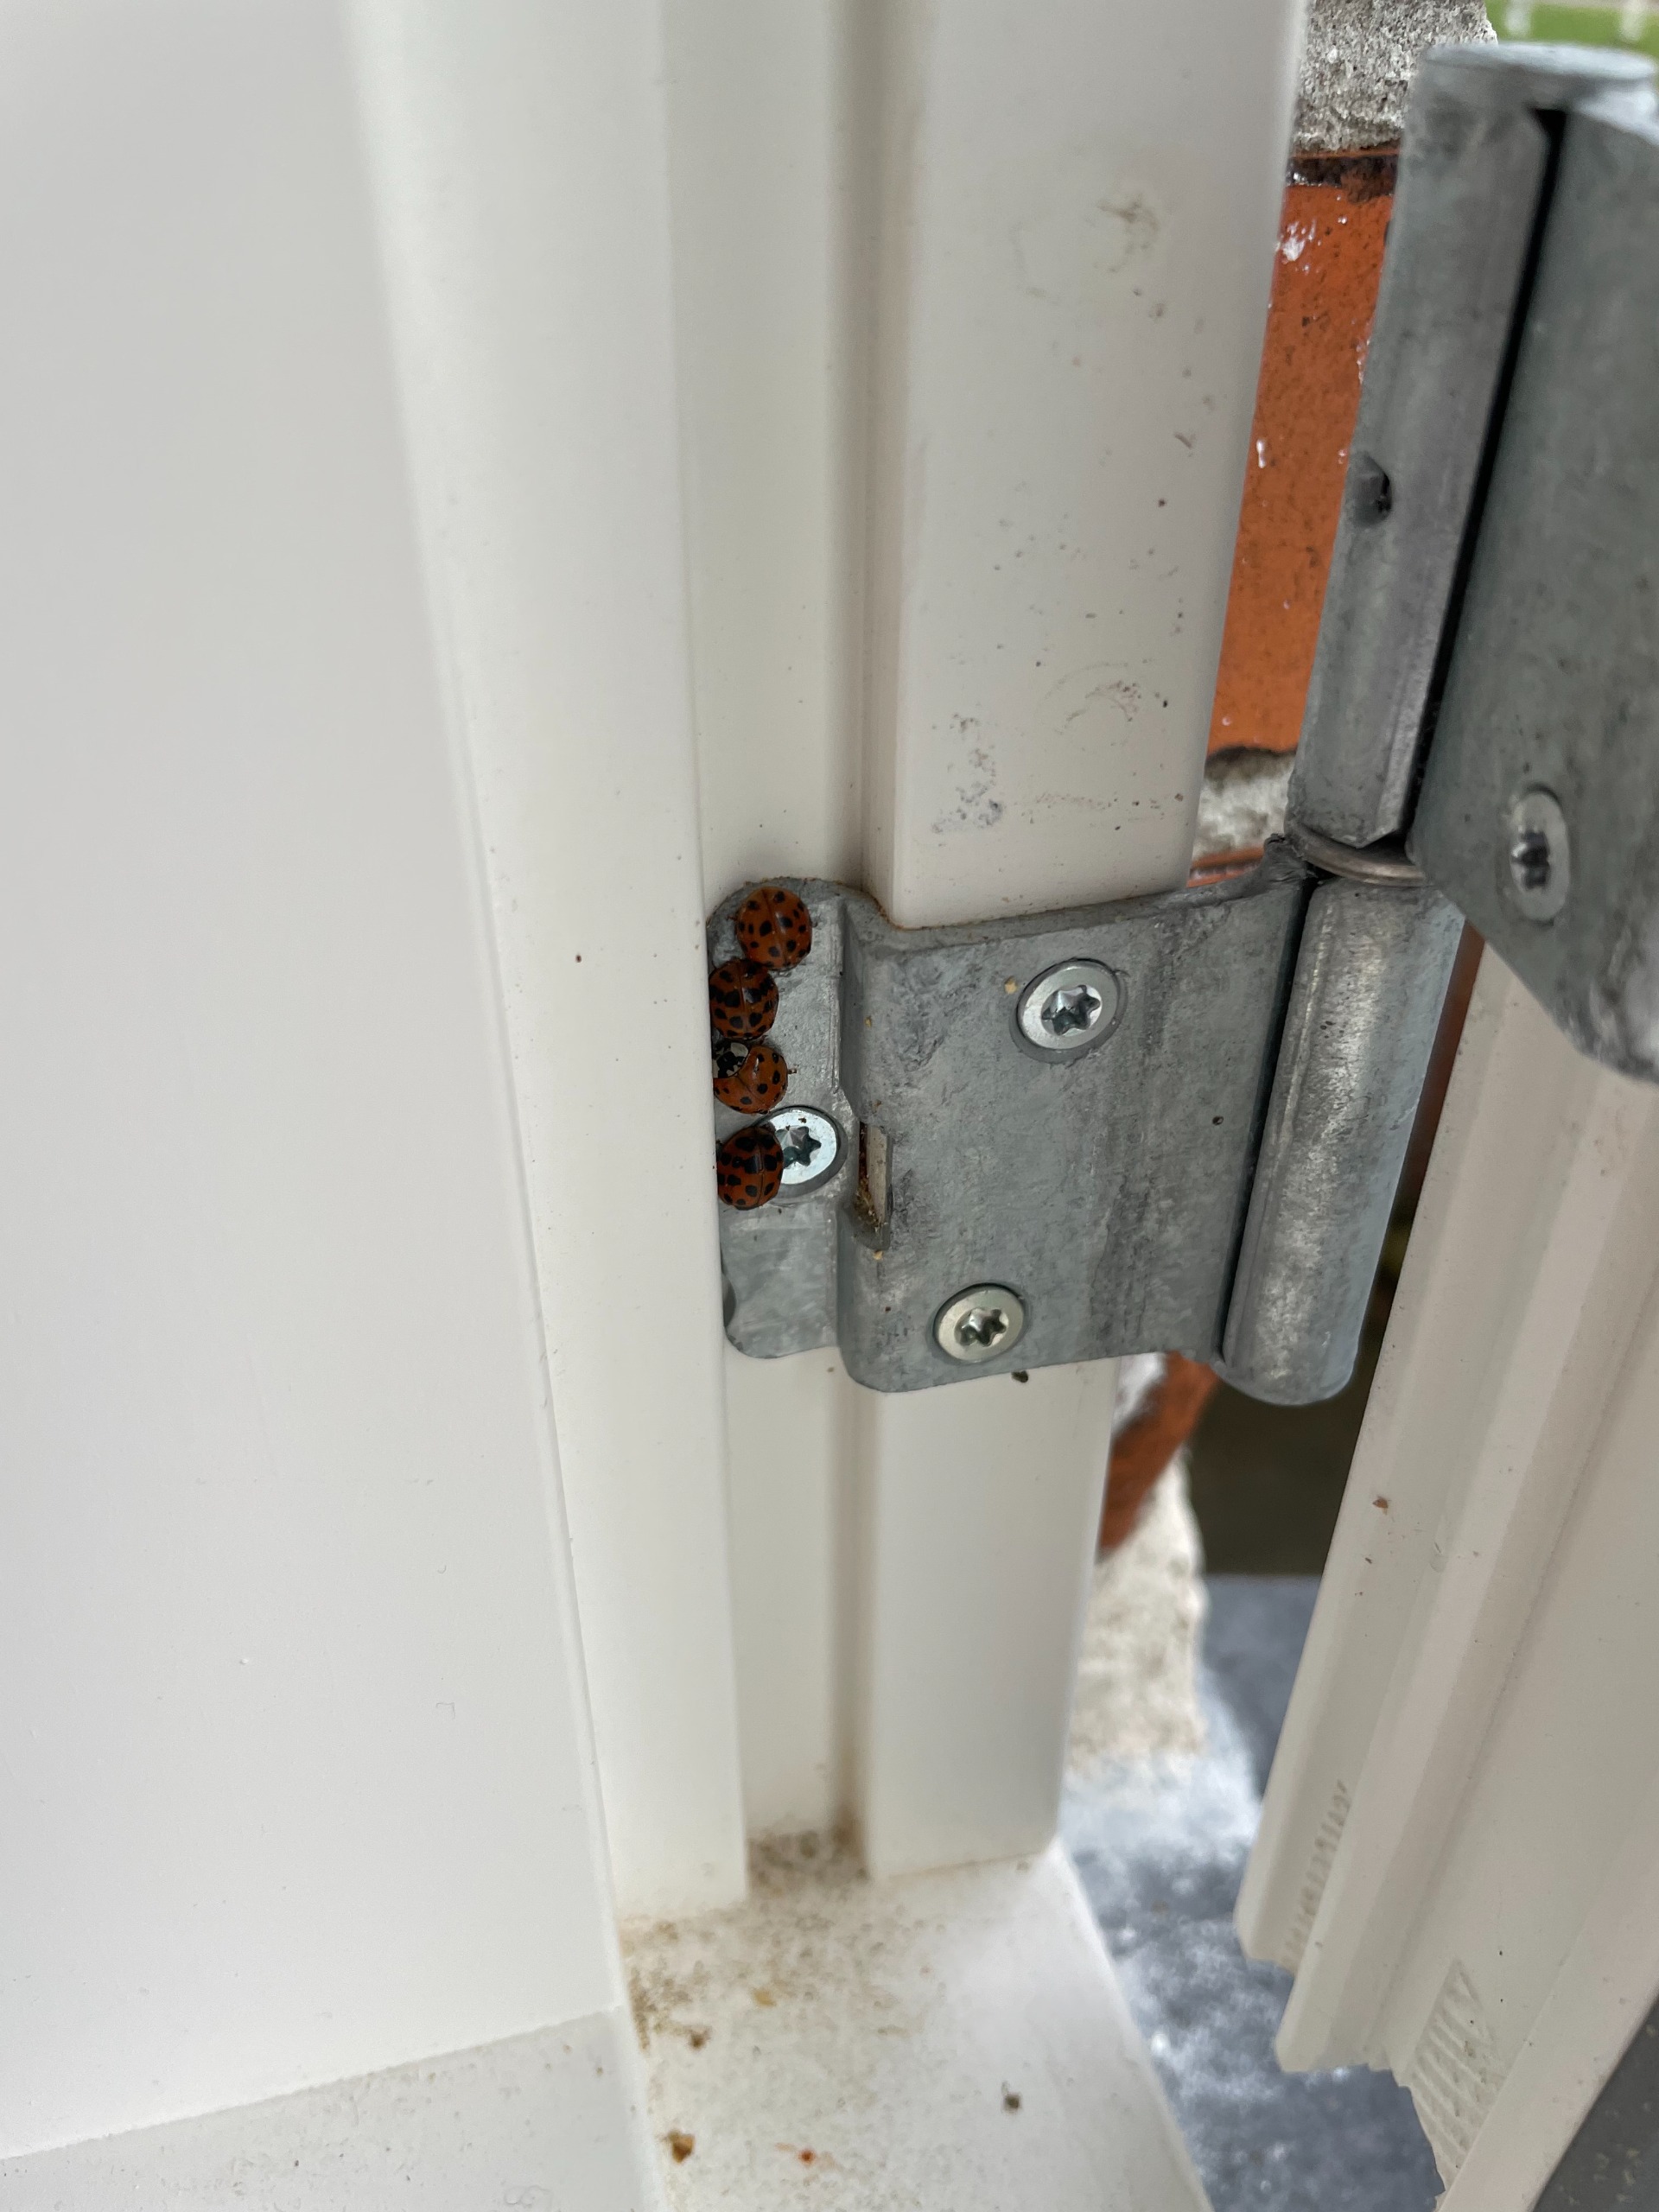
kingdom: Animalia
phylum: Arthropoda
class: Insecta
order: Coleoptera
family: Coccinellidae
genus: Harmonia
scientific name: Harmonia axyridis
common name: Harlekinmariehøne
